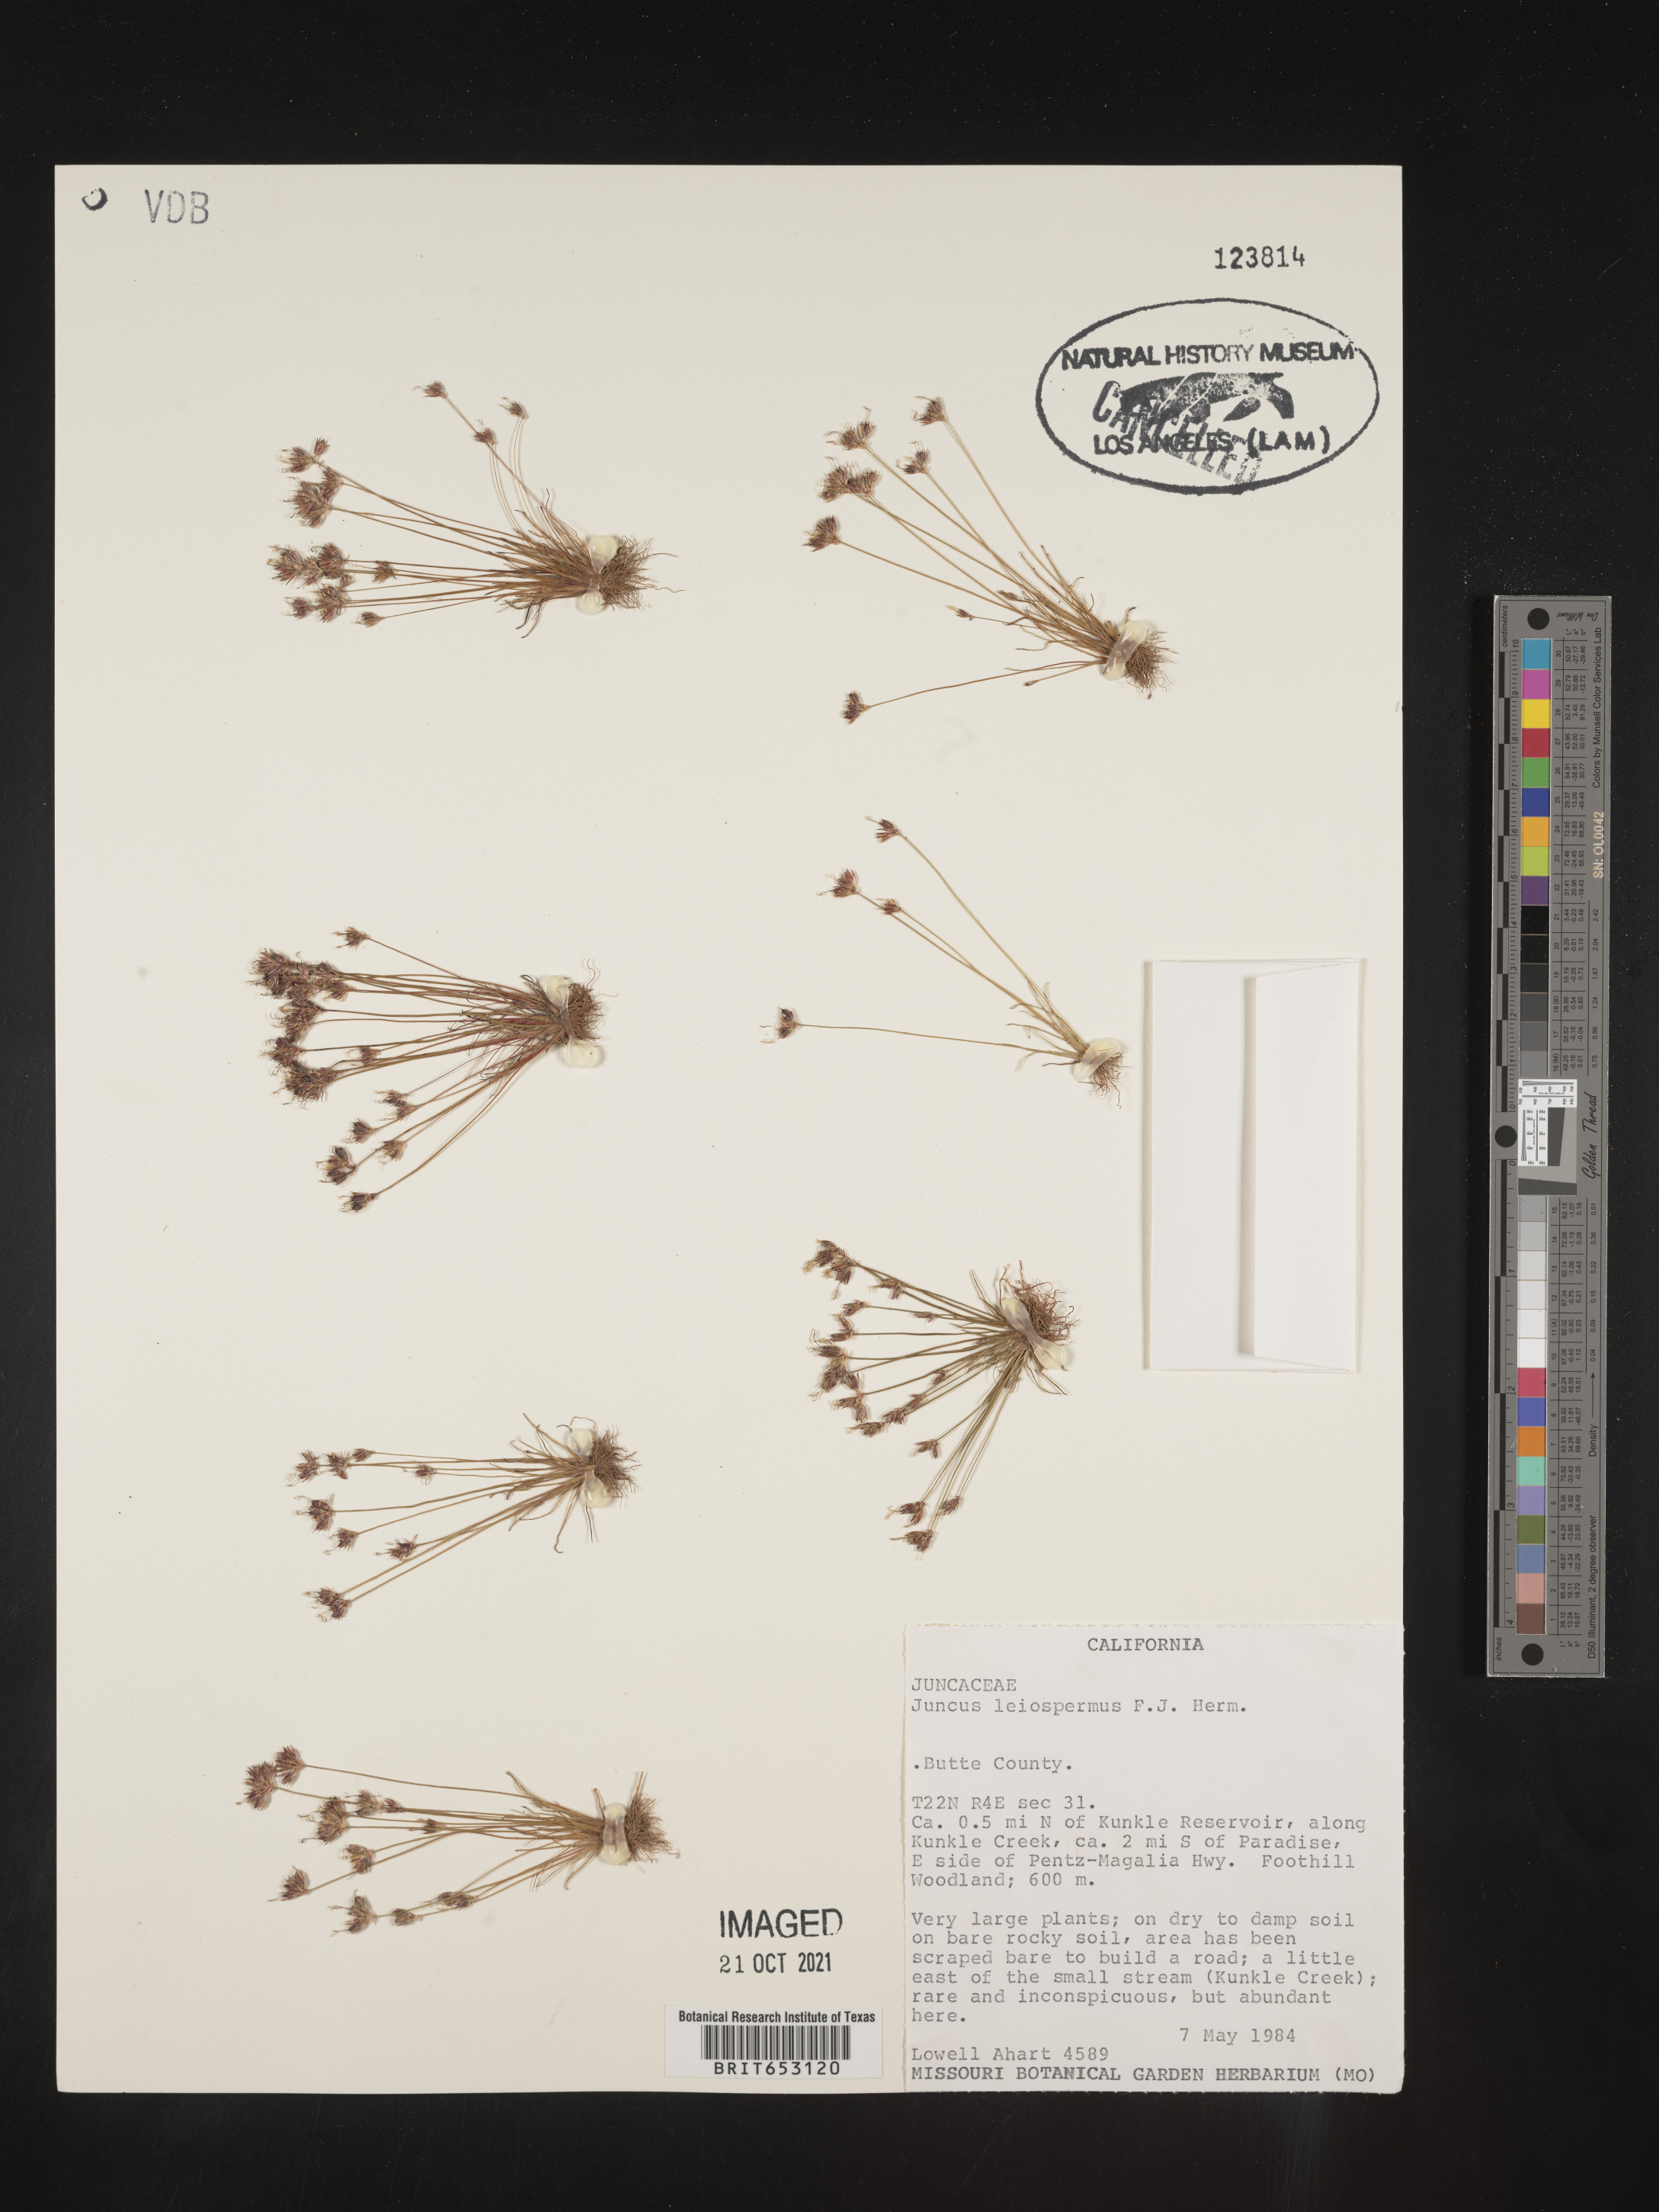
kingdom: Plantae
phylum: Tracheophyta
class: Liliopsida
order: Poales
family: Juncaceae
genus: Juncus
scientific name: Juncus leiospermus
